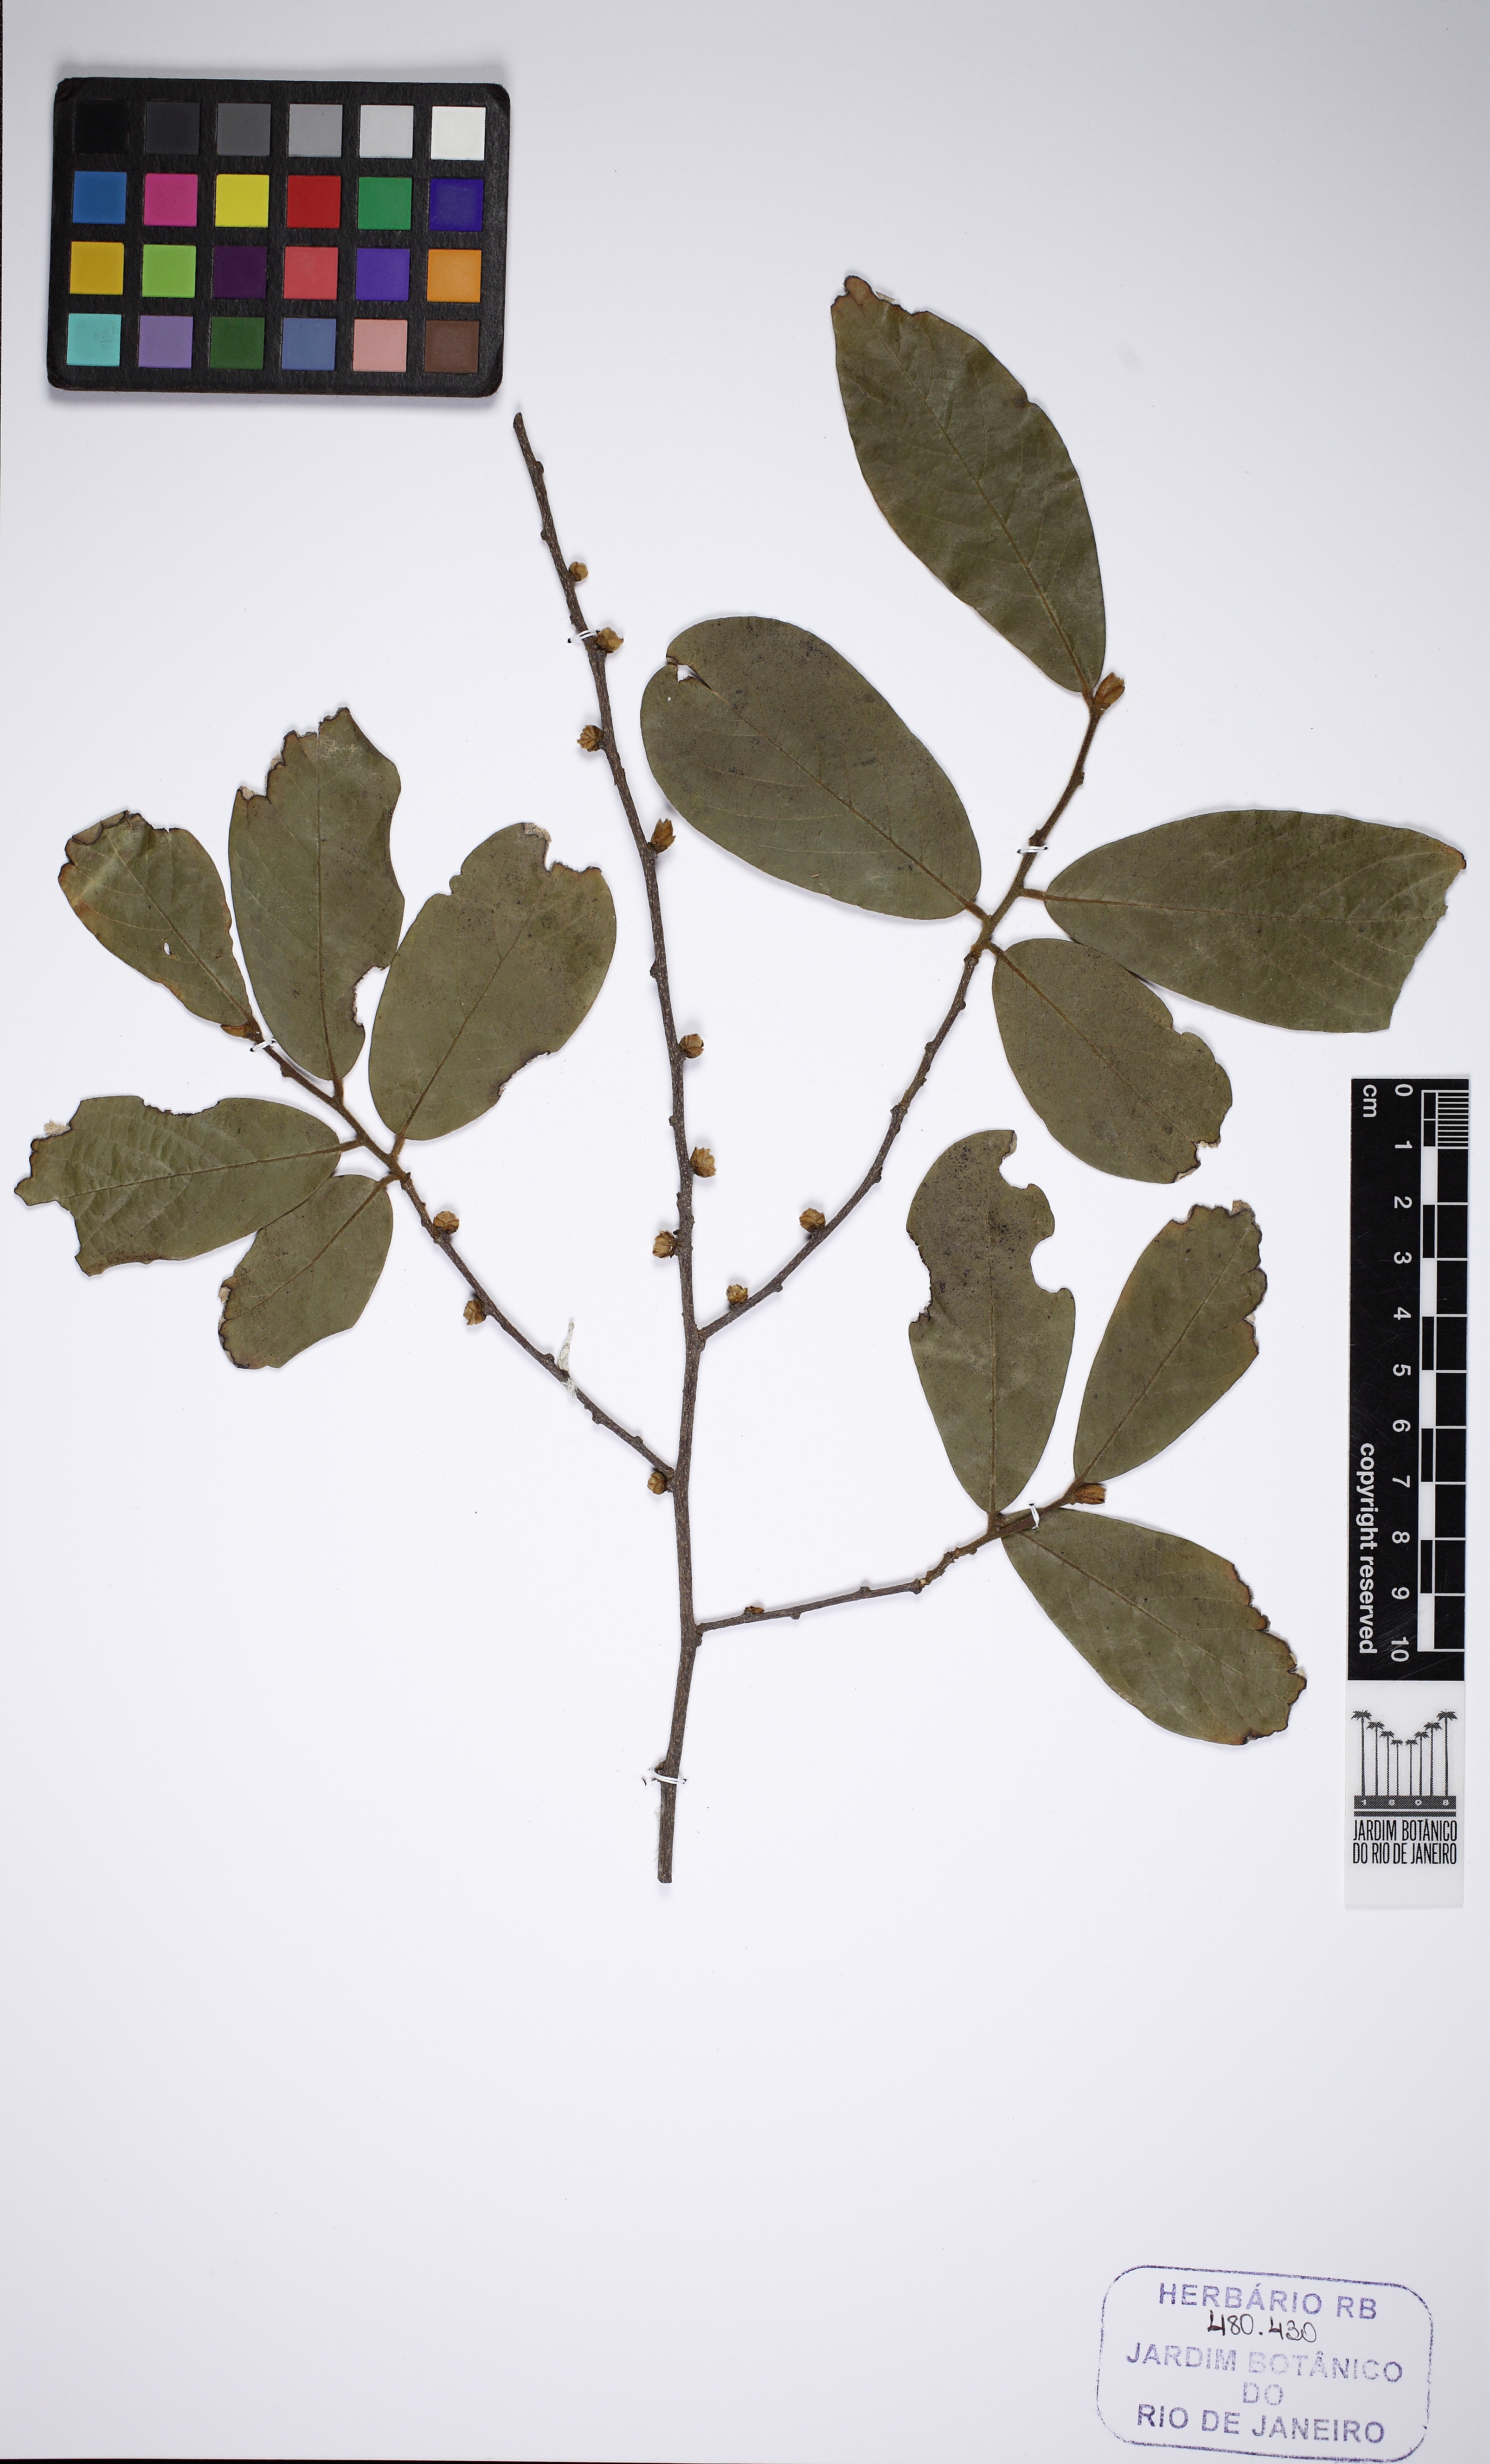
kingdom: Plantae
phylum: Tracheophyta
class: Magnoliopsida
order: Magnoliales
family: Annonaceae
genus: Ephedranthus
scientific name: Ephedranthus pisocarpus
